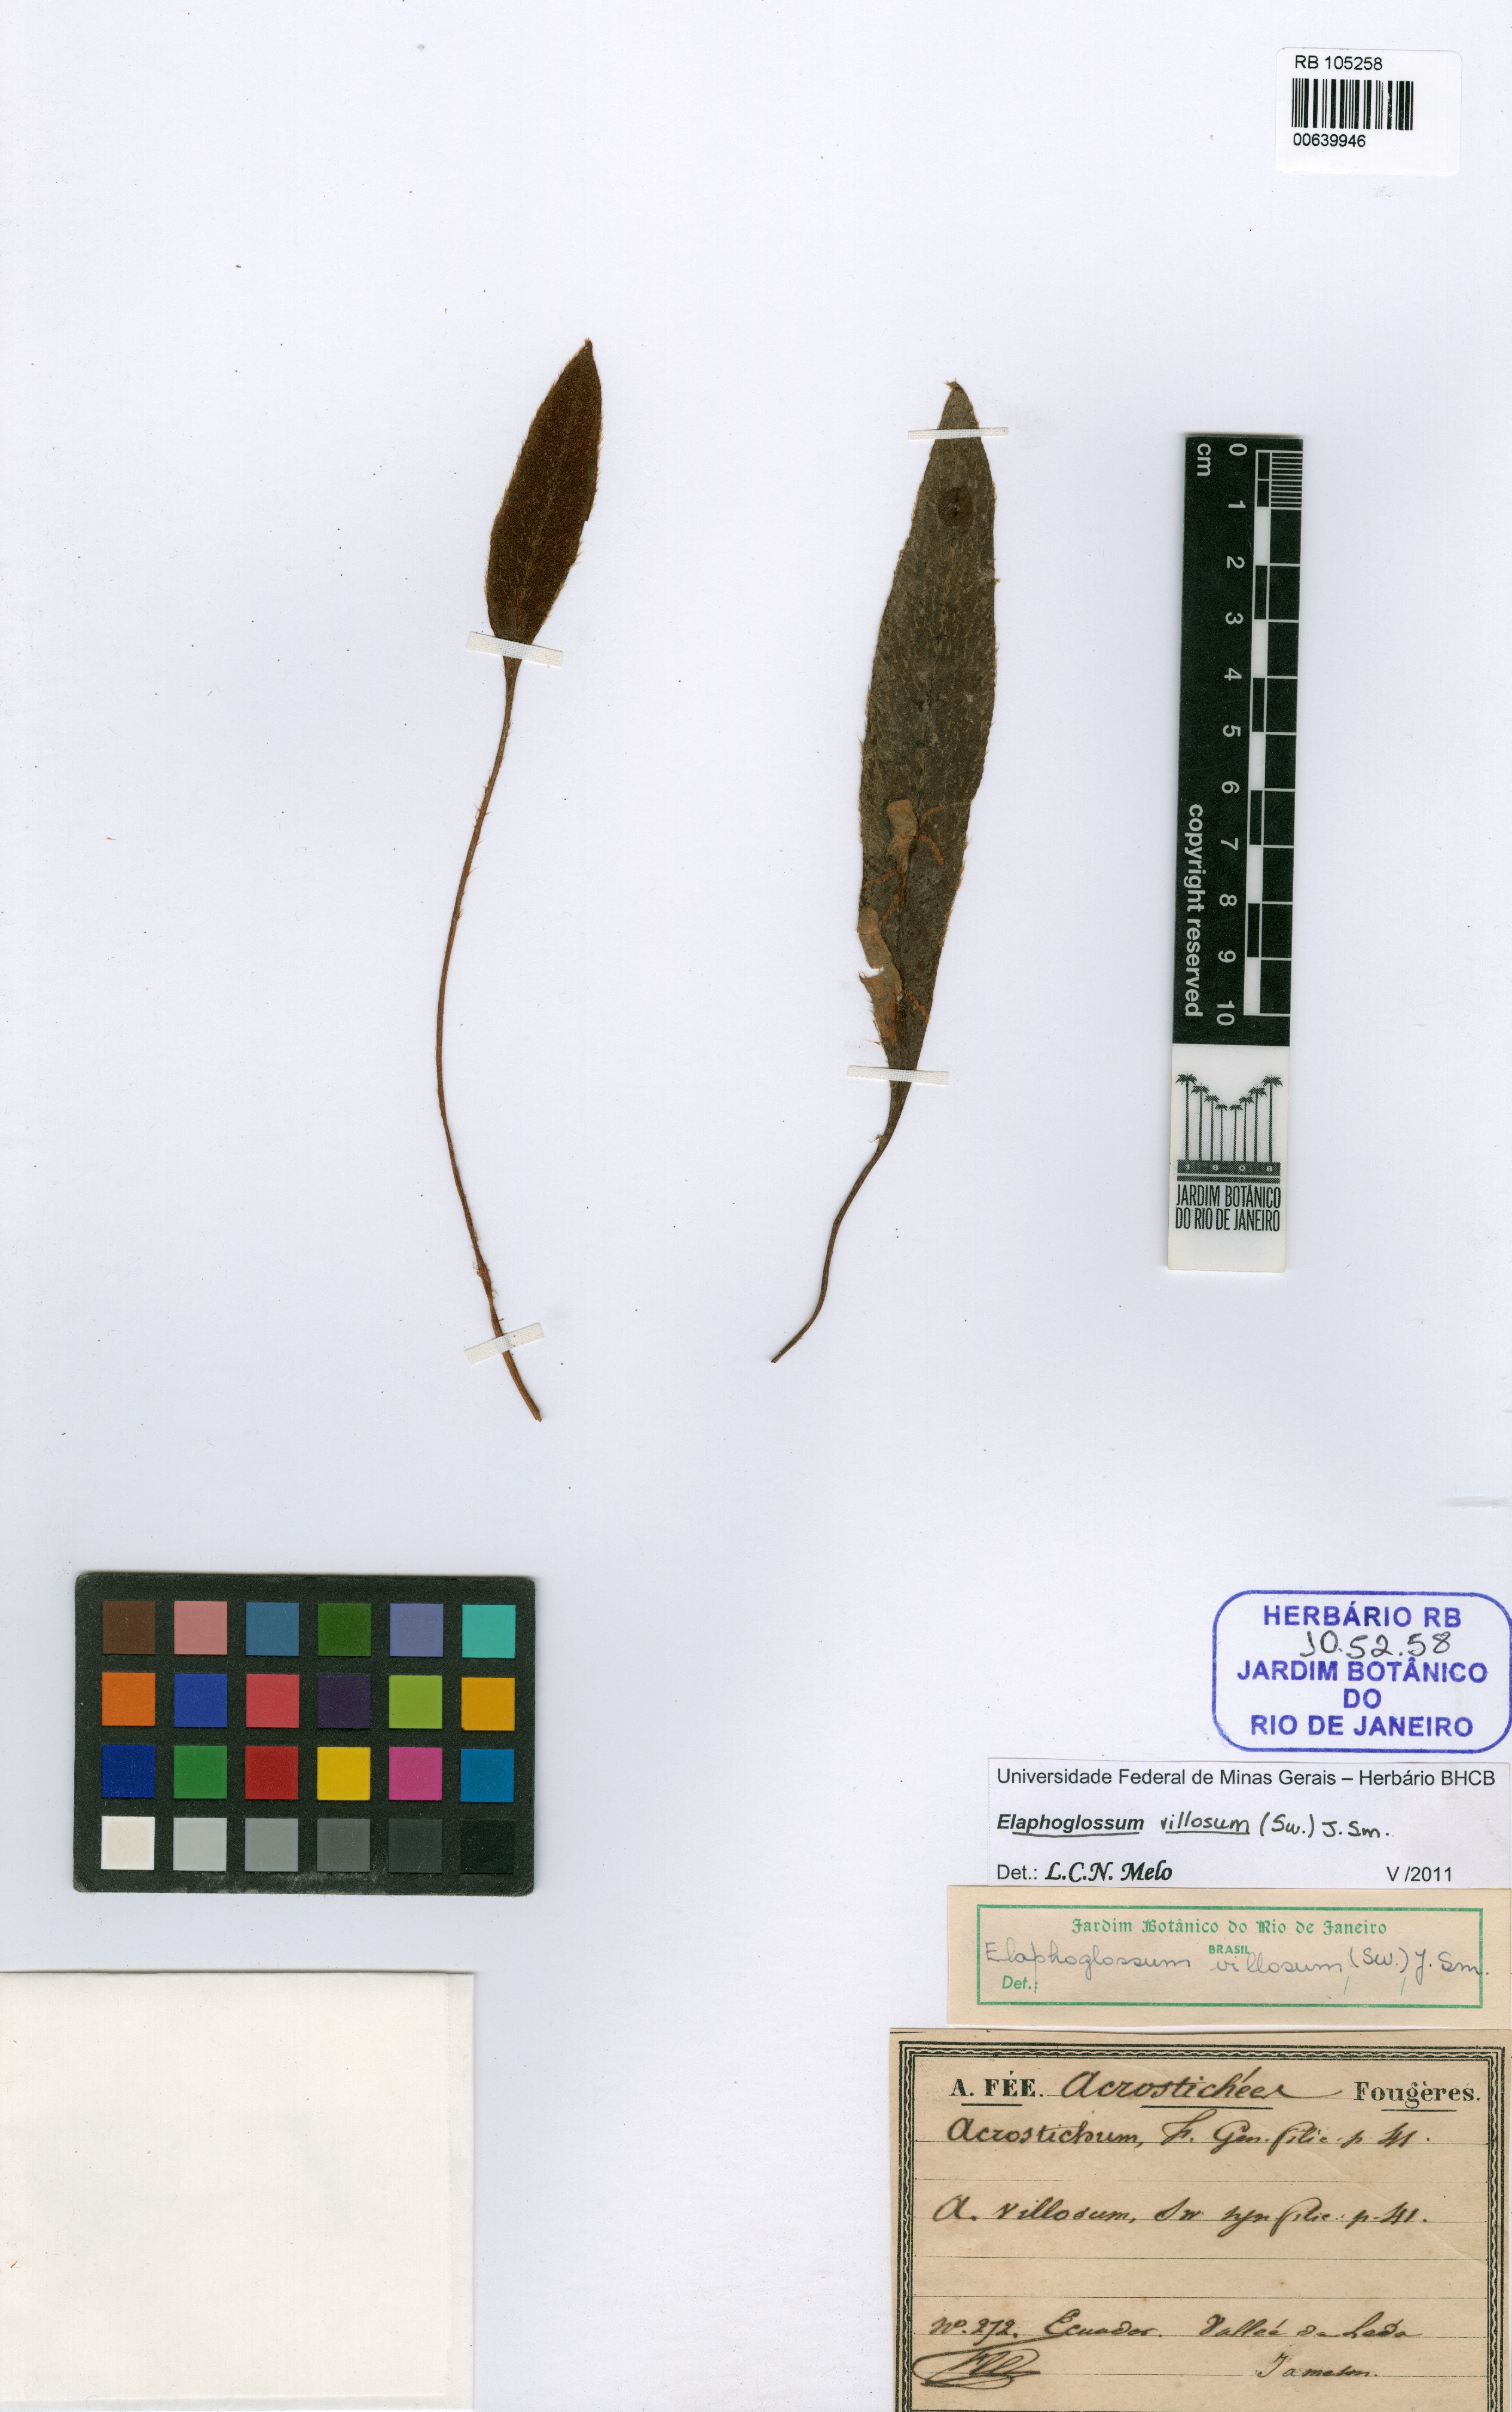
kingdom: Plantae
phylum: Tracheophyta
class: Polypodiopsida
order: Polypodiales
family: Dryopteridaceae
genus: Elaphoglossum
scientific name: Elaphoglossum moritzianum
